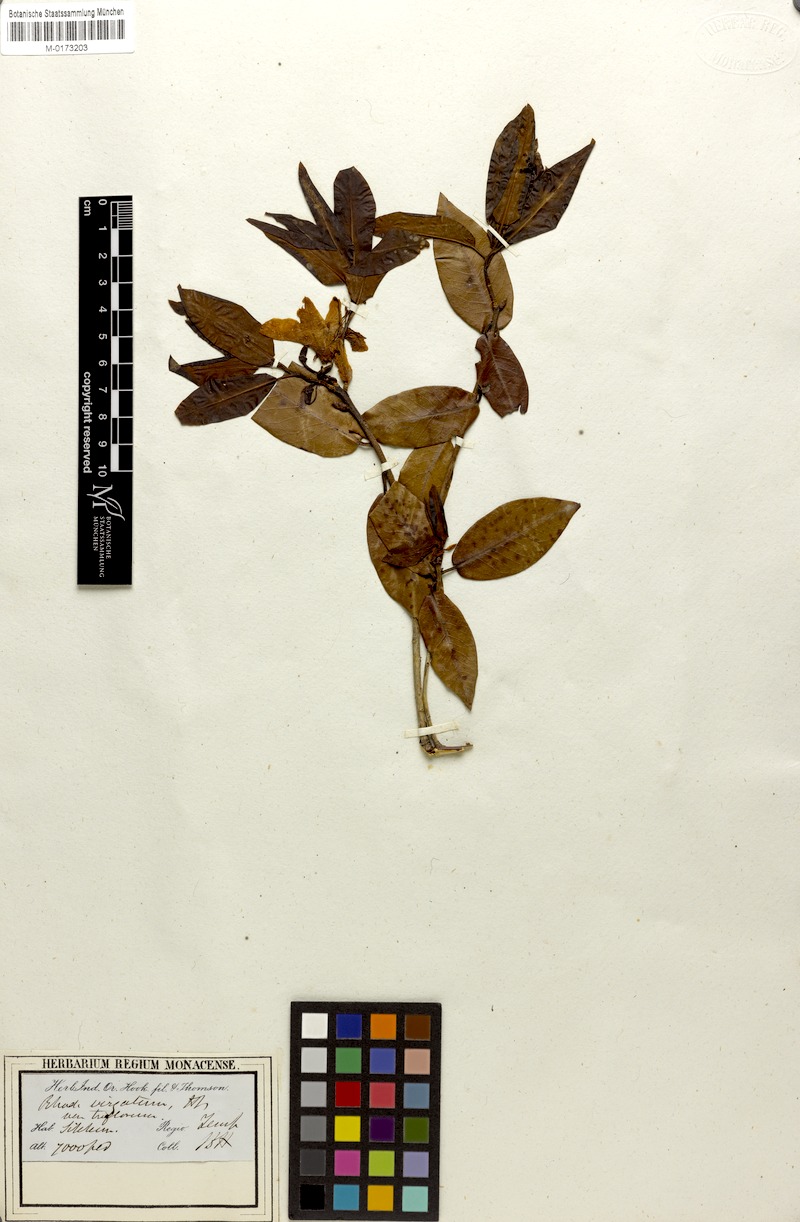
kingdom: Plantae
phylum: Tracheophyta
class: Magnoliopsida
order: Ericales
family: Ericaceae
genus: Rhododendron
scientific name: Rhododendron virgatum
